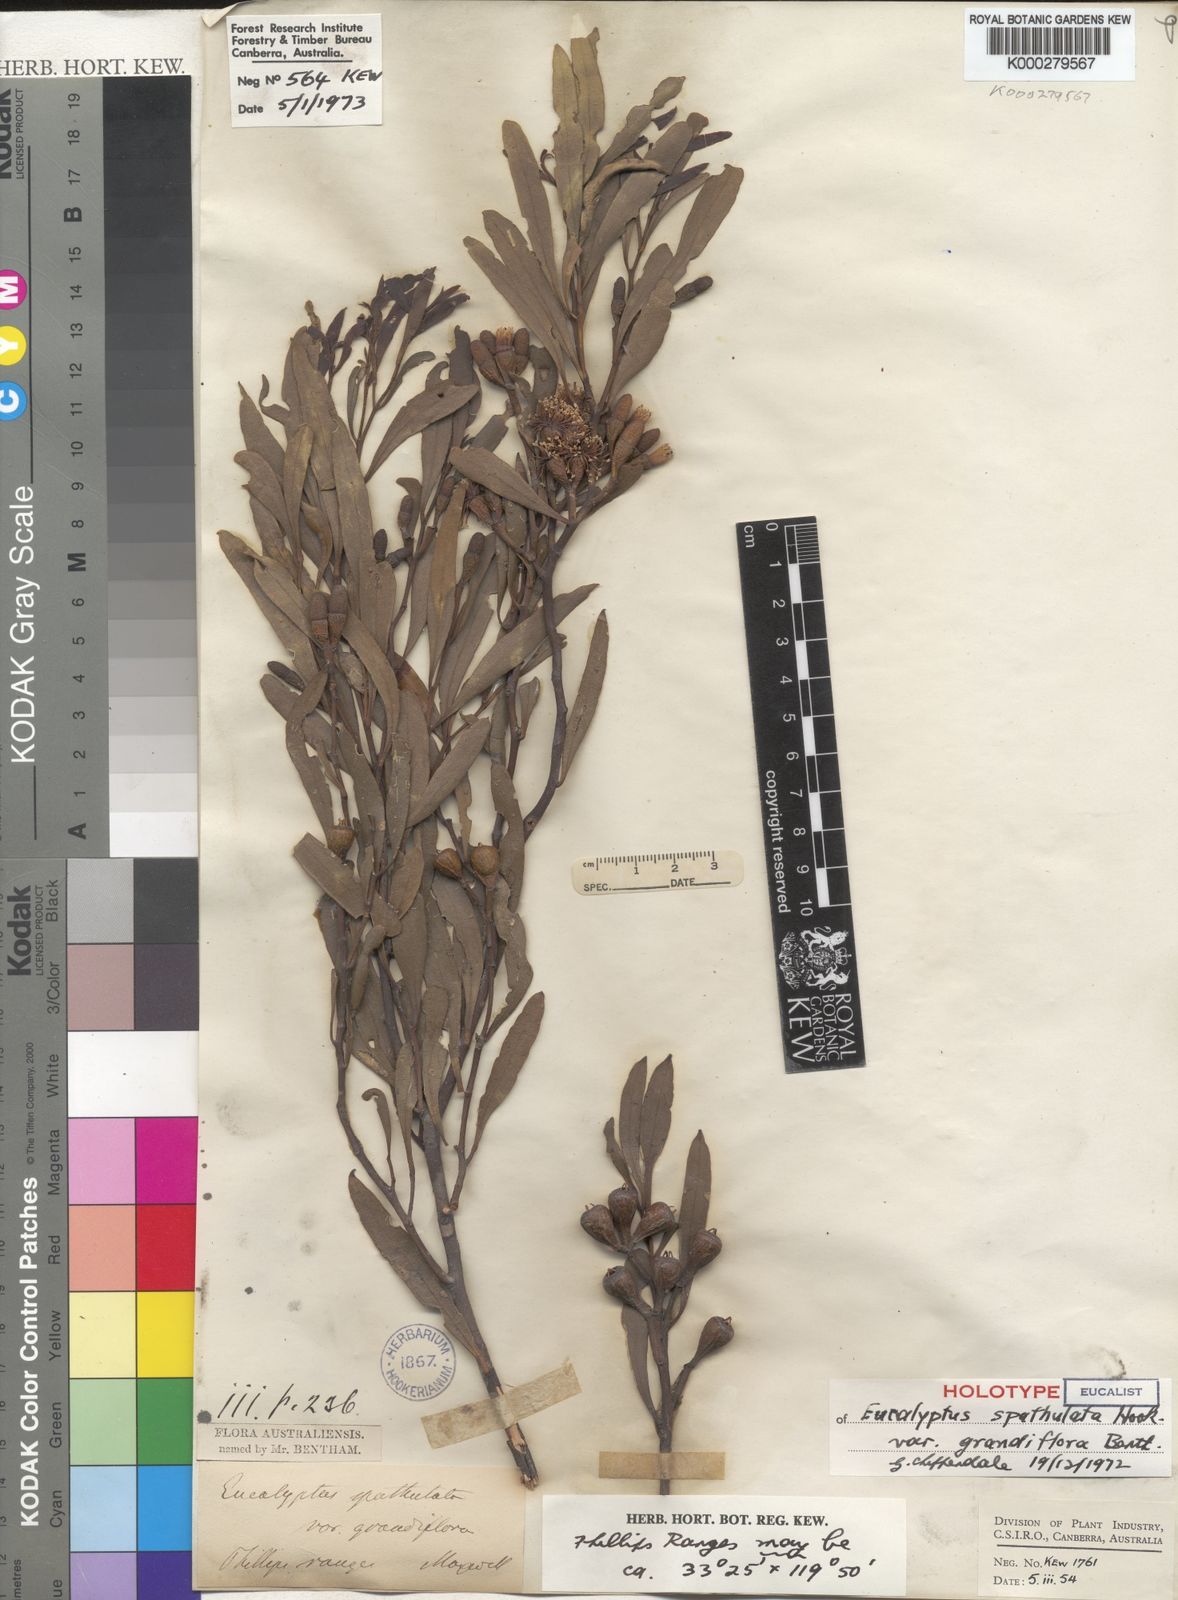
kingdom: Plantae
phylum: Tracheophyta
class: Magnoliopsida
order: Myrtales
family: Myrtaceae
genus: Eucalyptus
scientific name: Eucalyptus spathulata
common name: Swamp mallet
